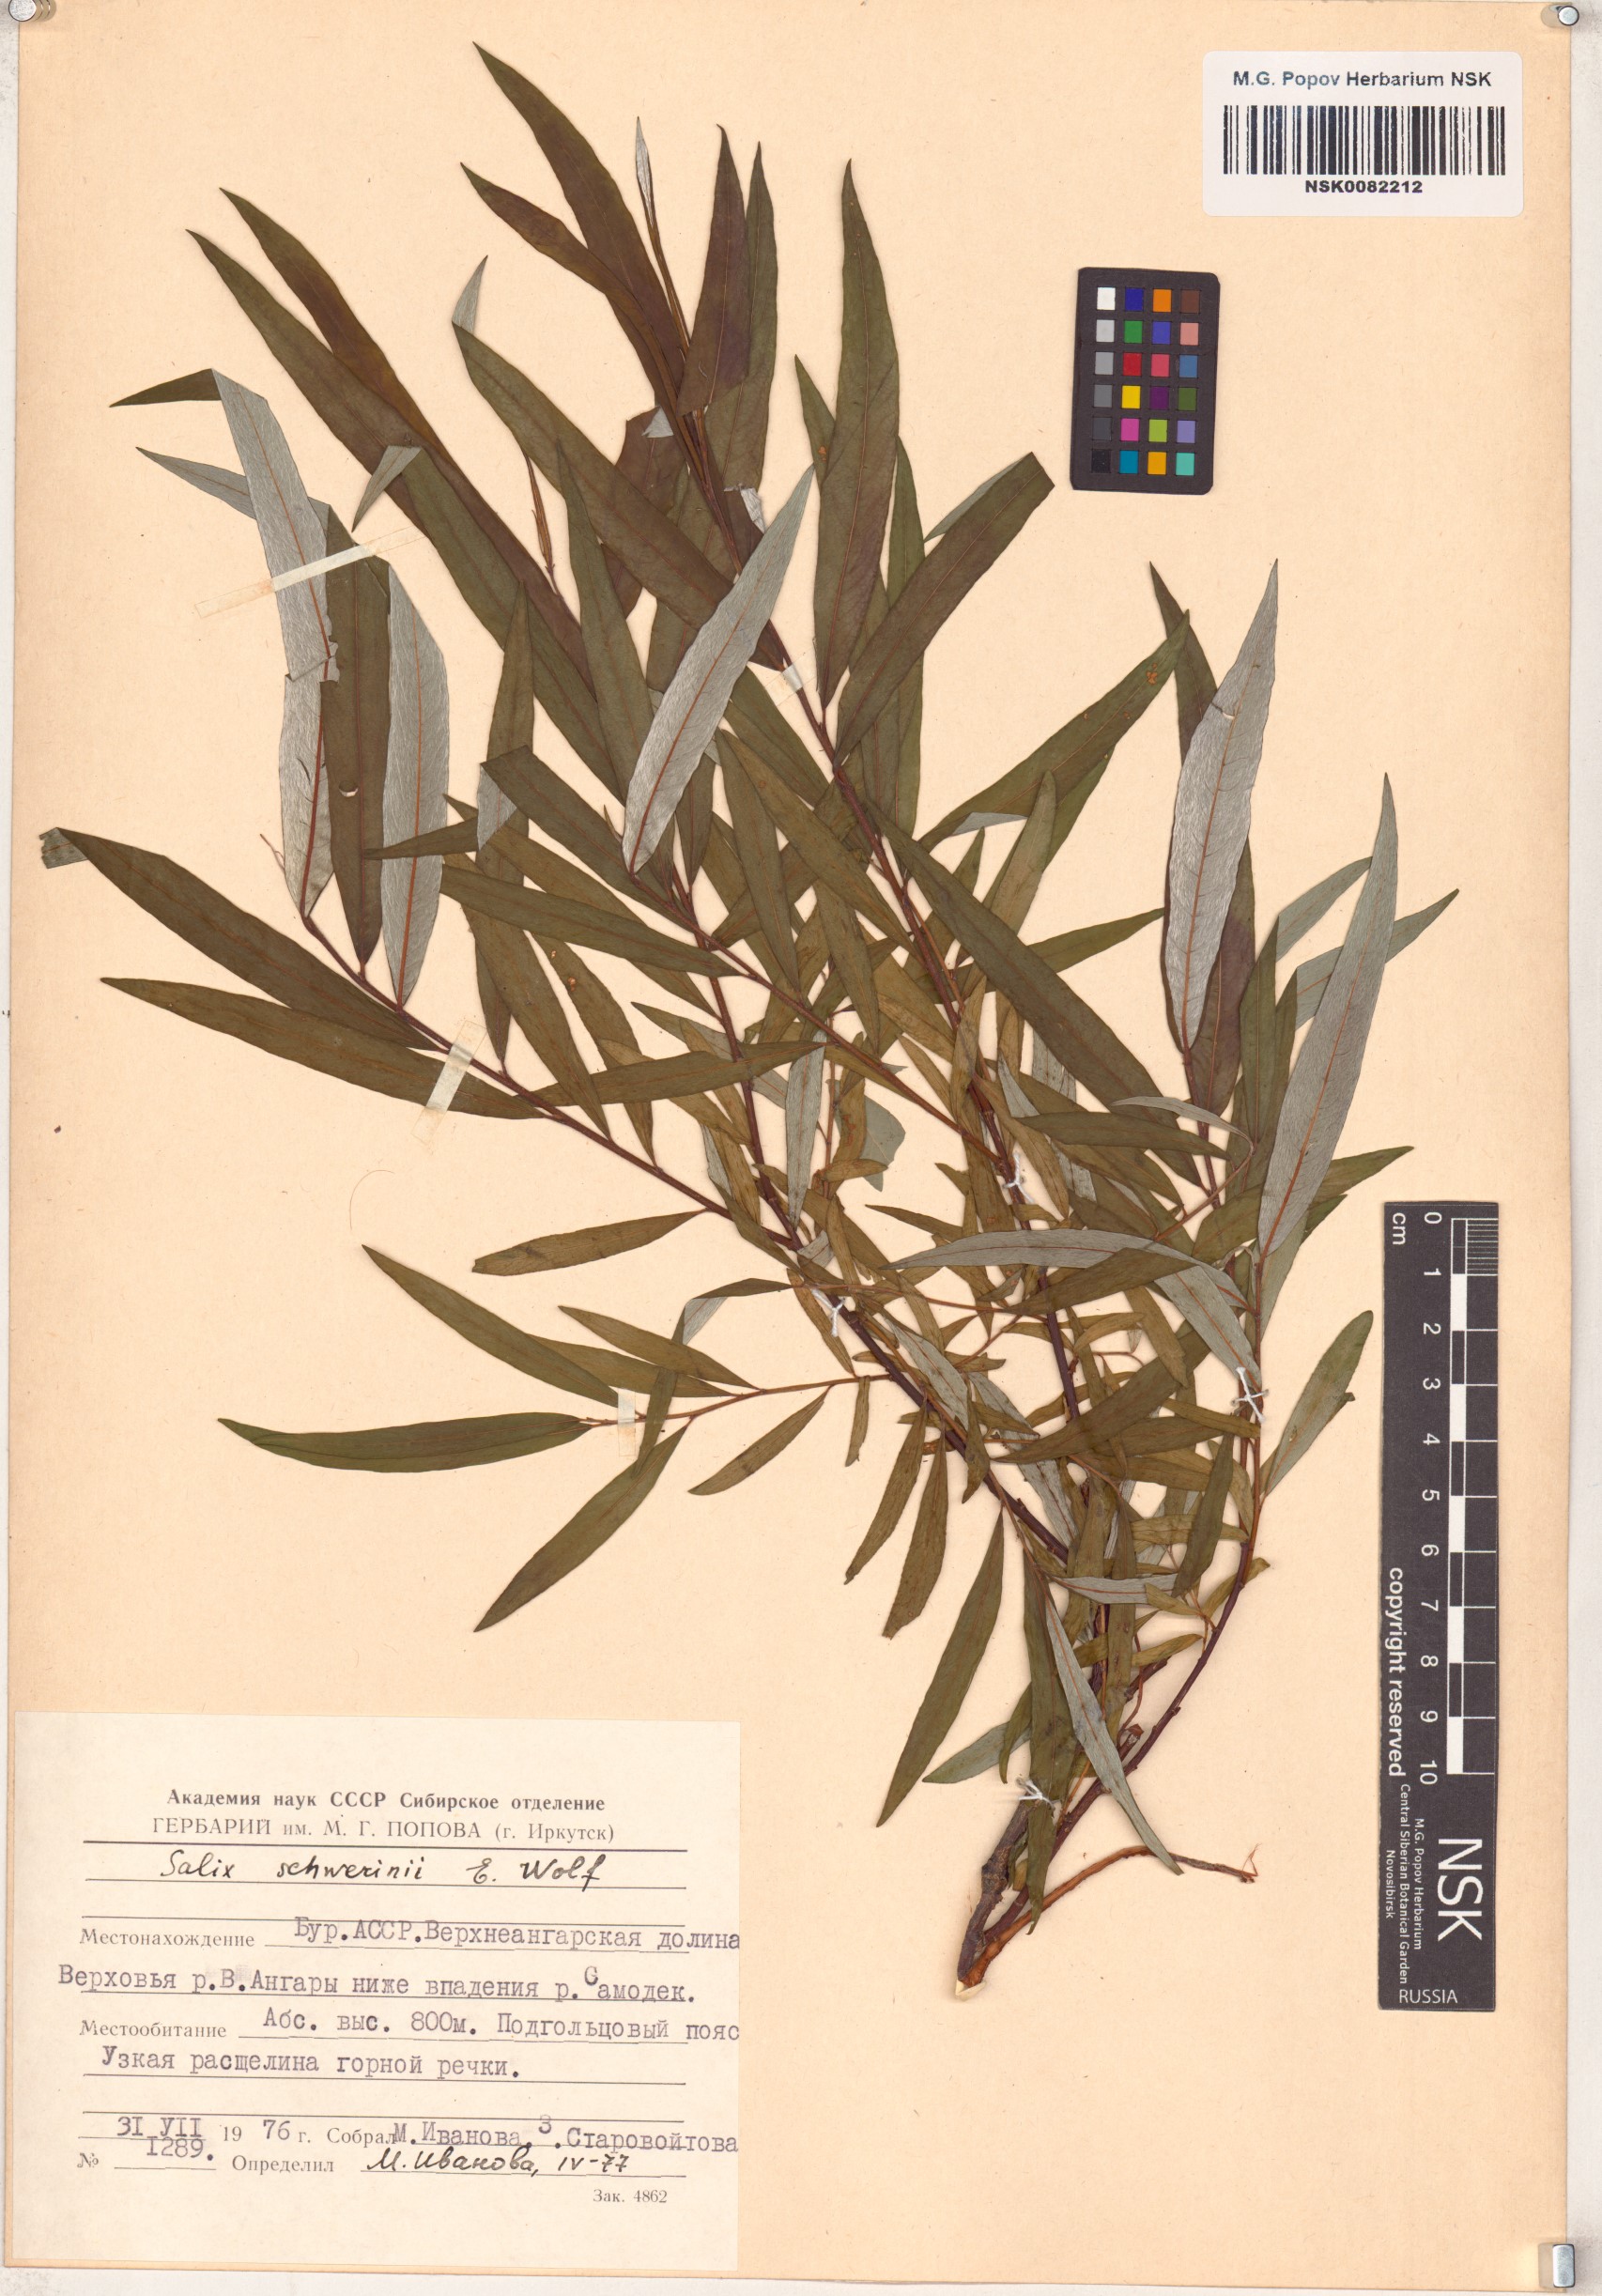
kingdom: Plantae
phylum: Tracheophyta
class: Magnoliopsida
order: Malpighiales
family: Salicaceae
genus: Salix
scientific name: Salix schwerinii
